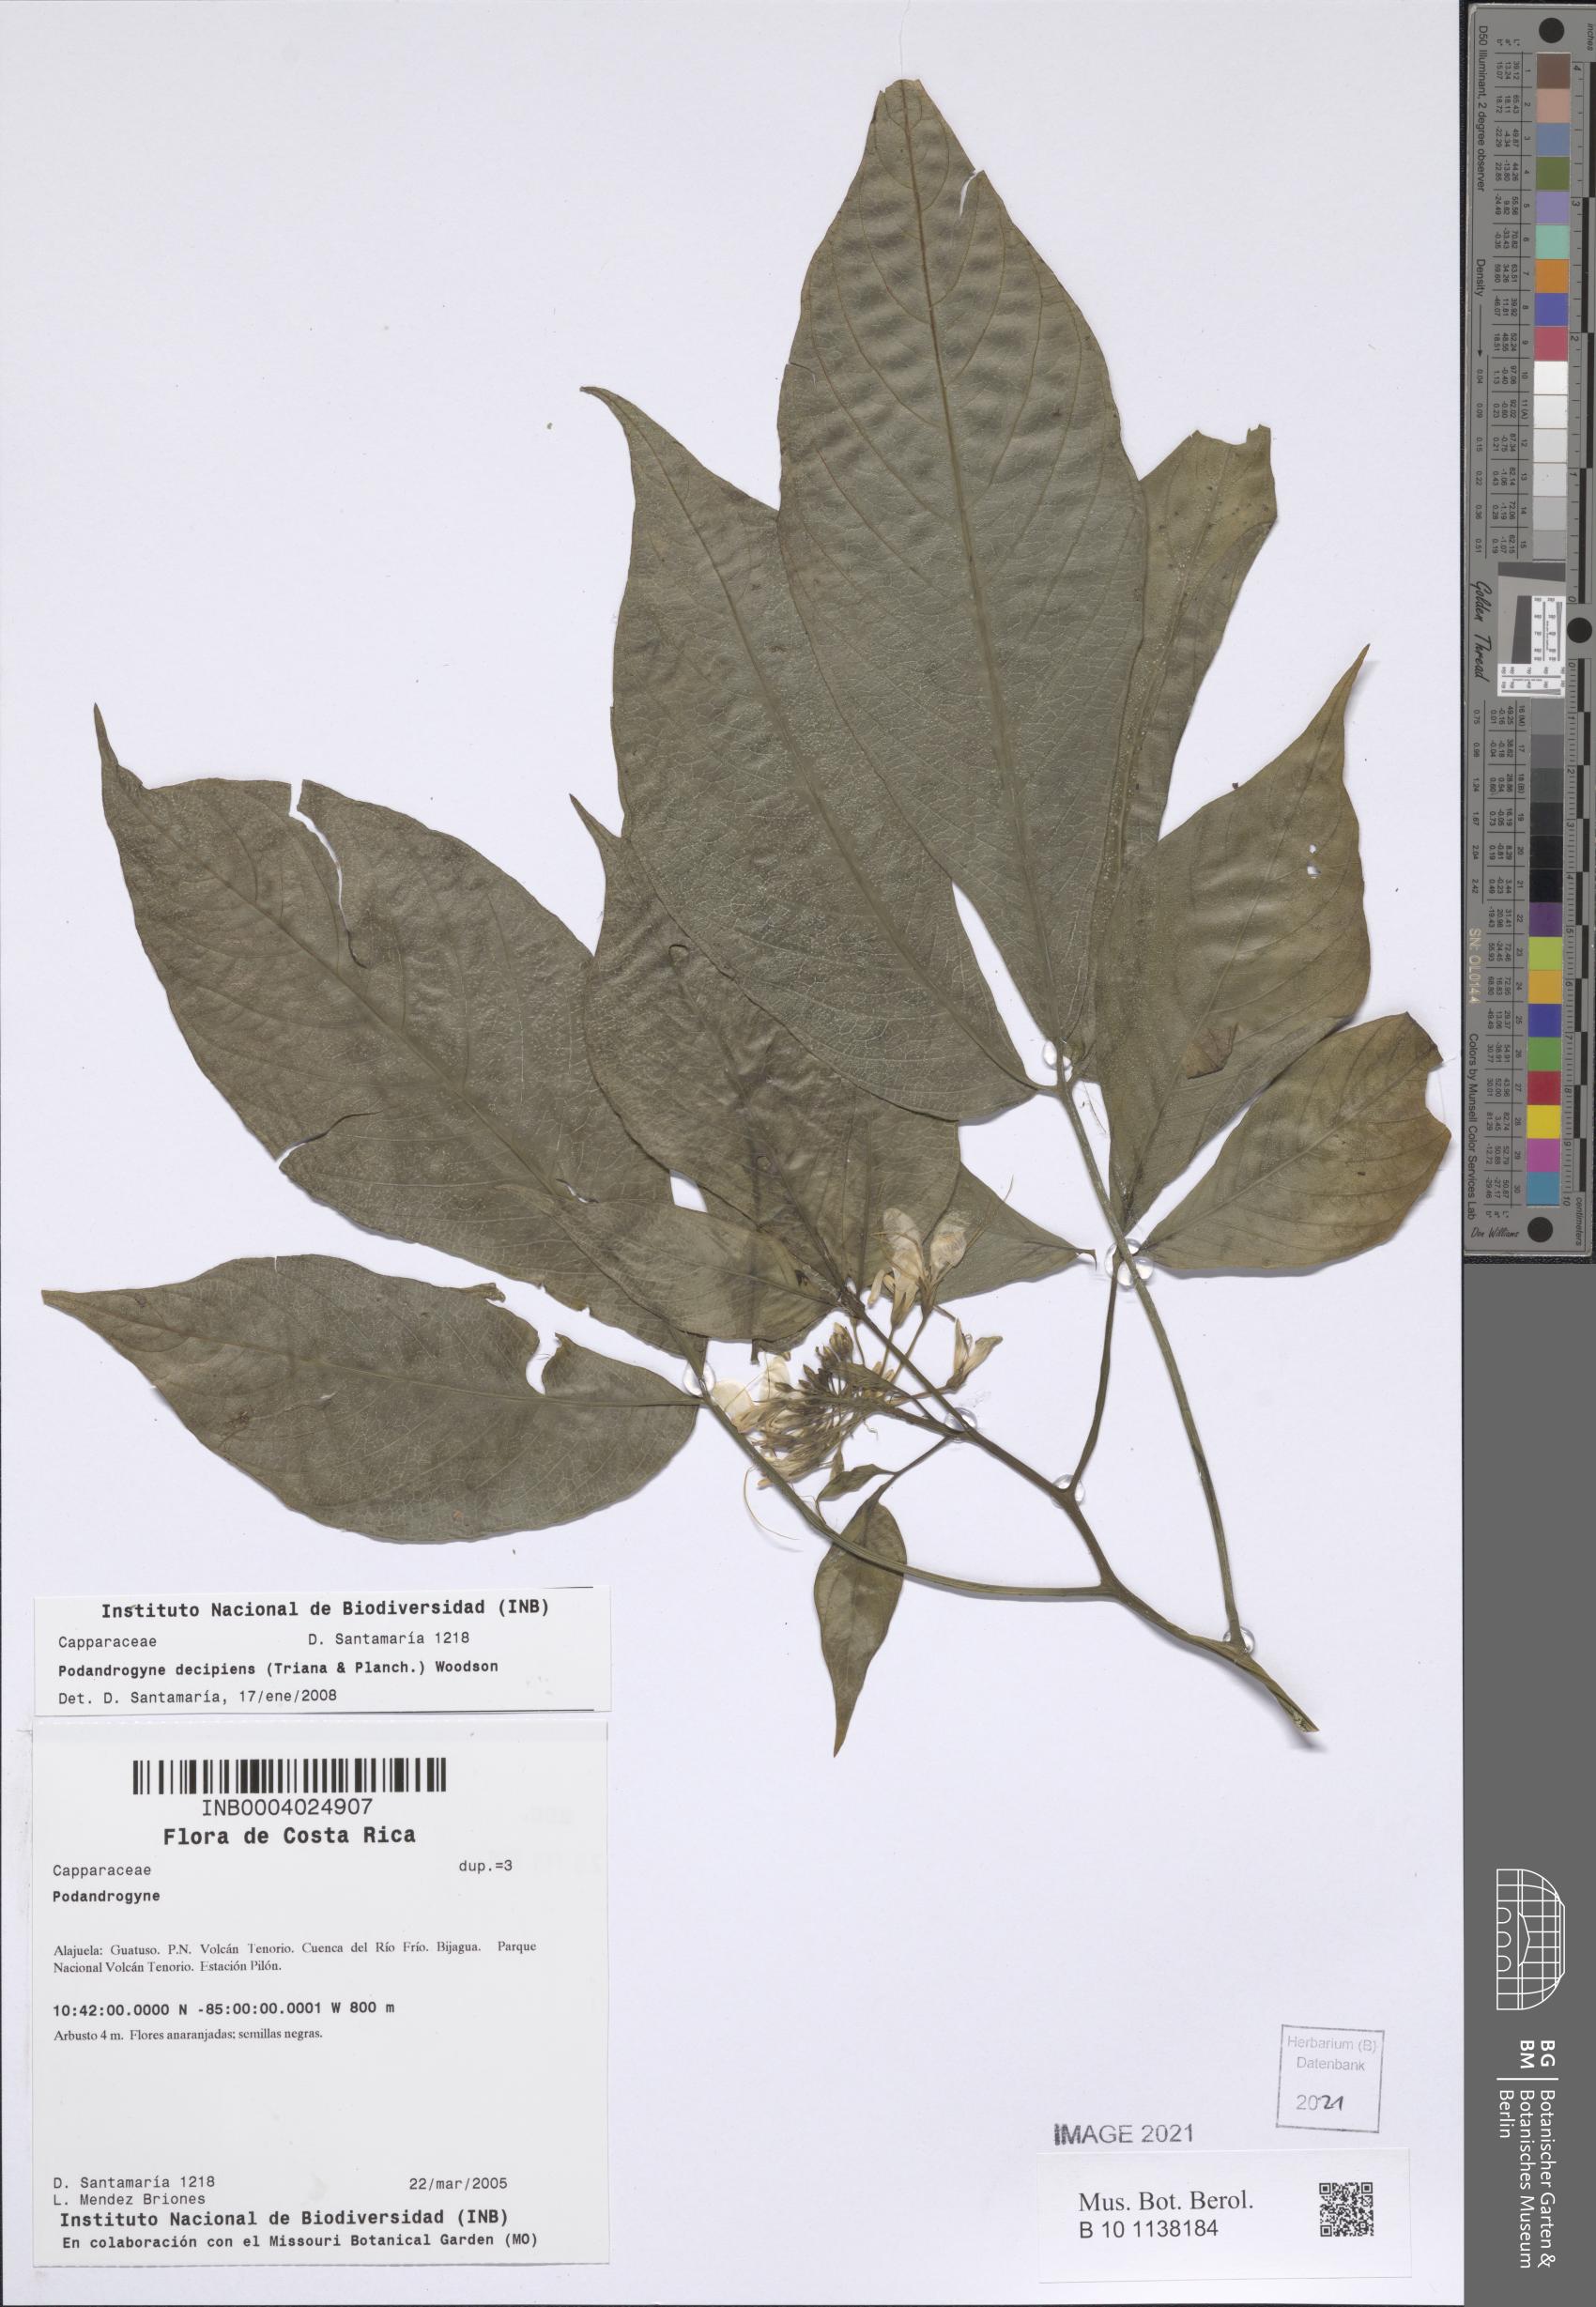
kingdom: Plantae
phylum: Tracheophyta
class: Magnoliopsida
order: Brassicales
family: Cleomaceae
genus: Podandrogyne
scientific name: Podandrogyne decipiens
